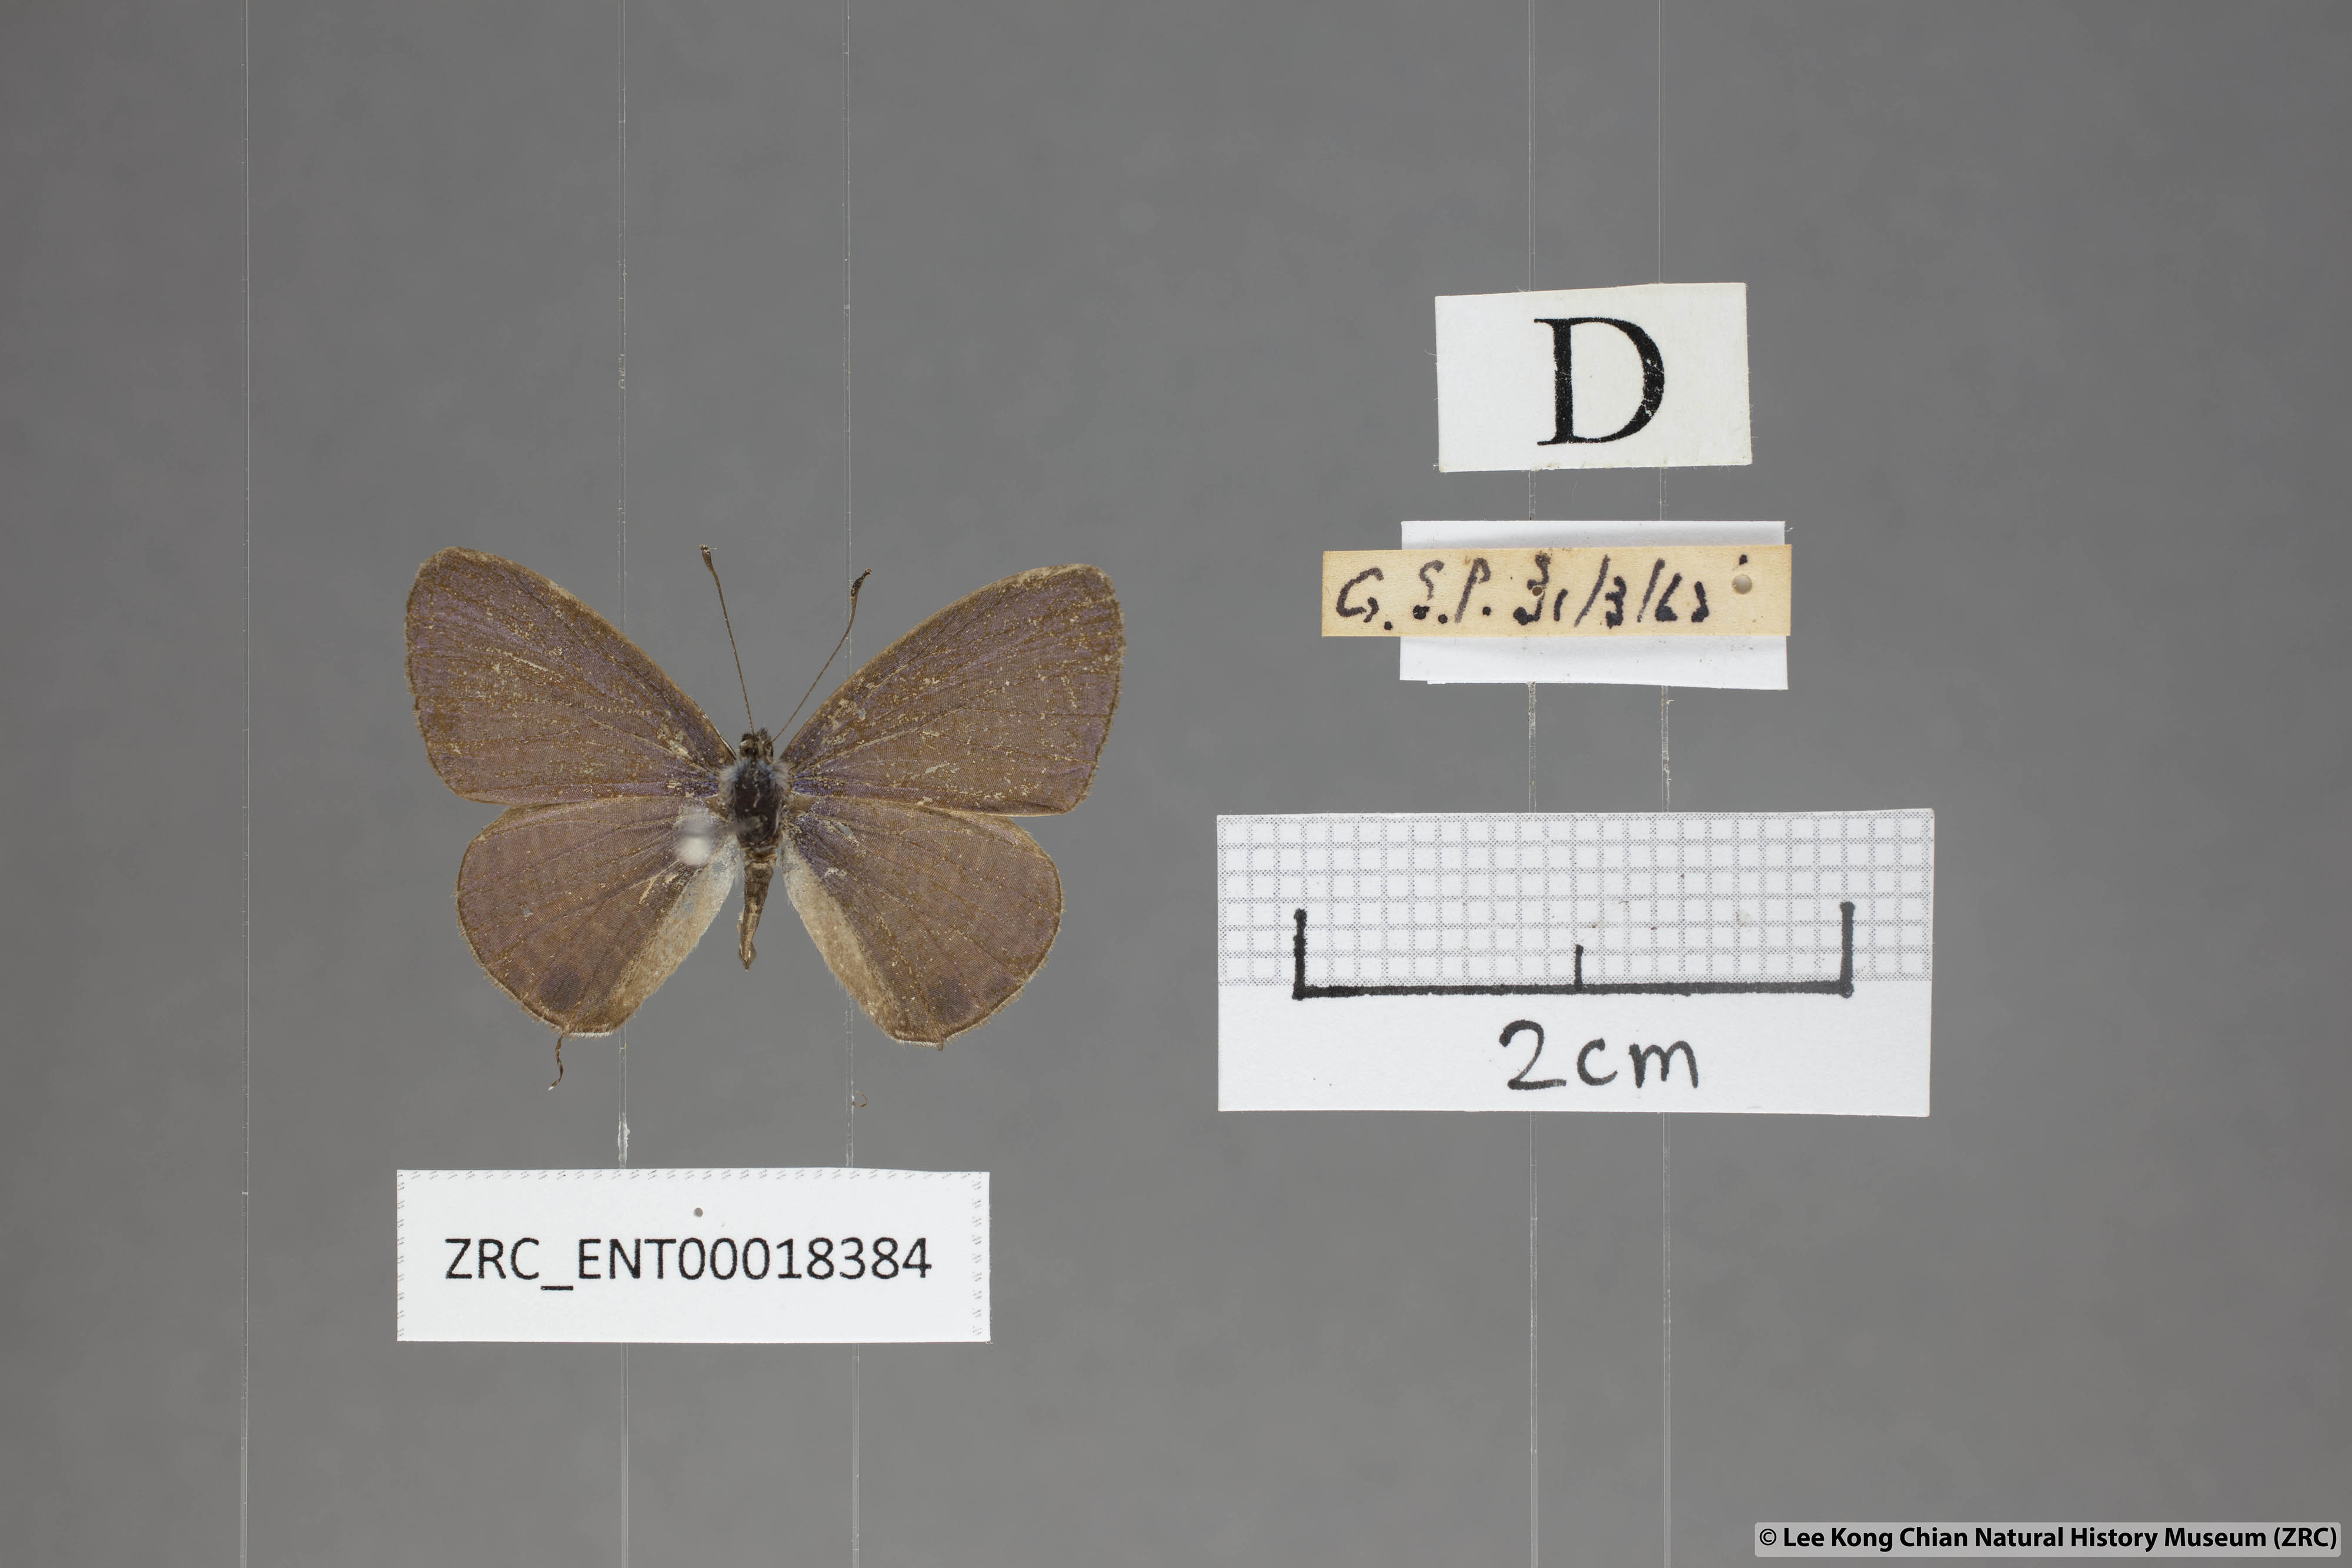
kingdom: Animalia
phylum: Arthropoda
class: Insecta
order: Lepidoptera
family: Lycaenidae
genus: Nacaduba
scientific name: Nacaduba kurava
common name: Transparent 6-line blue
